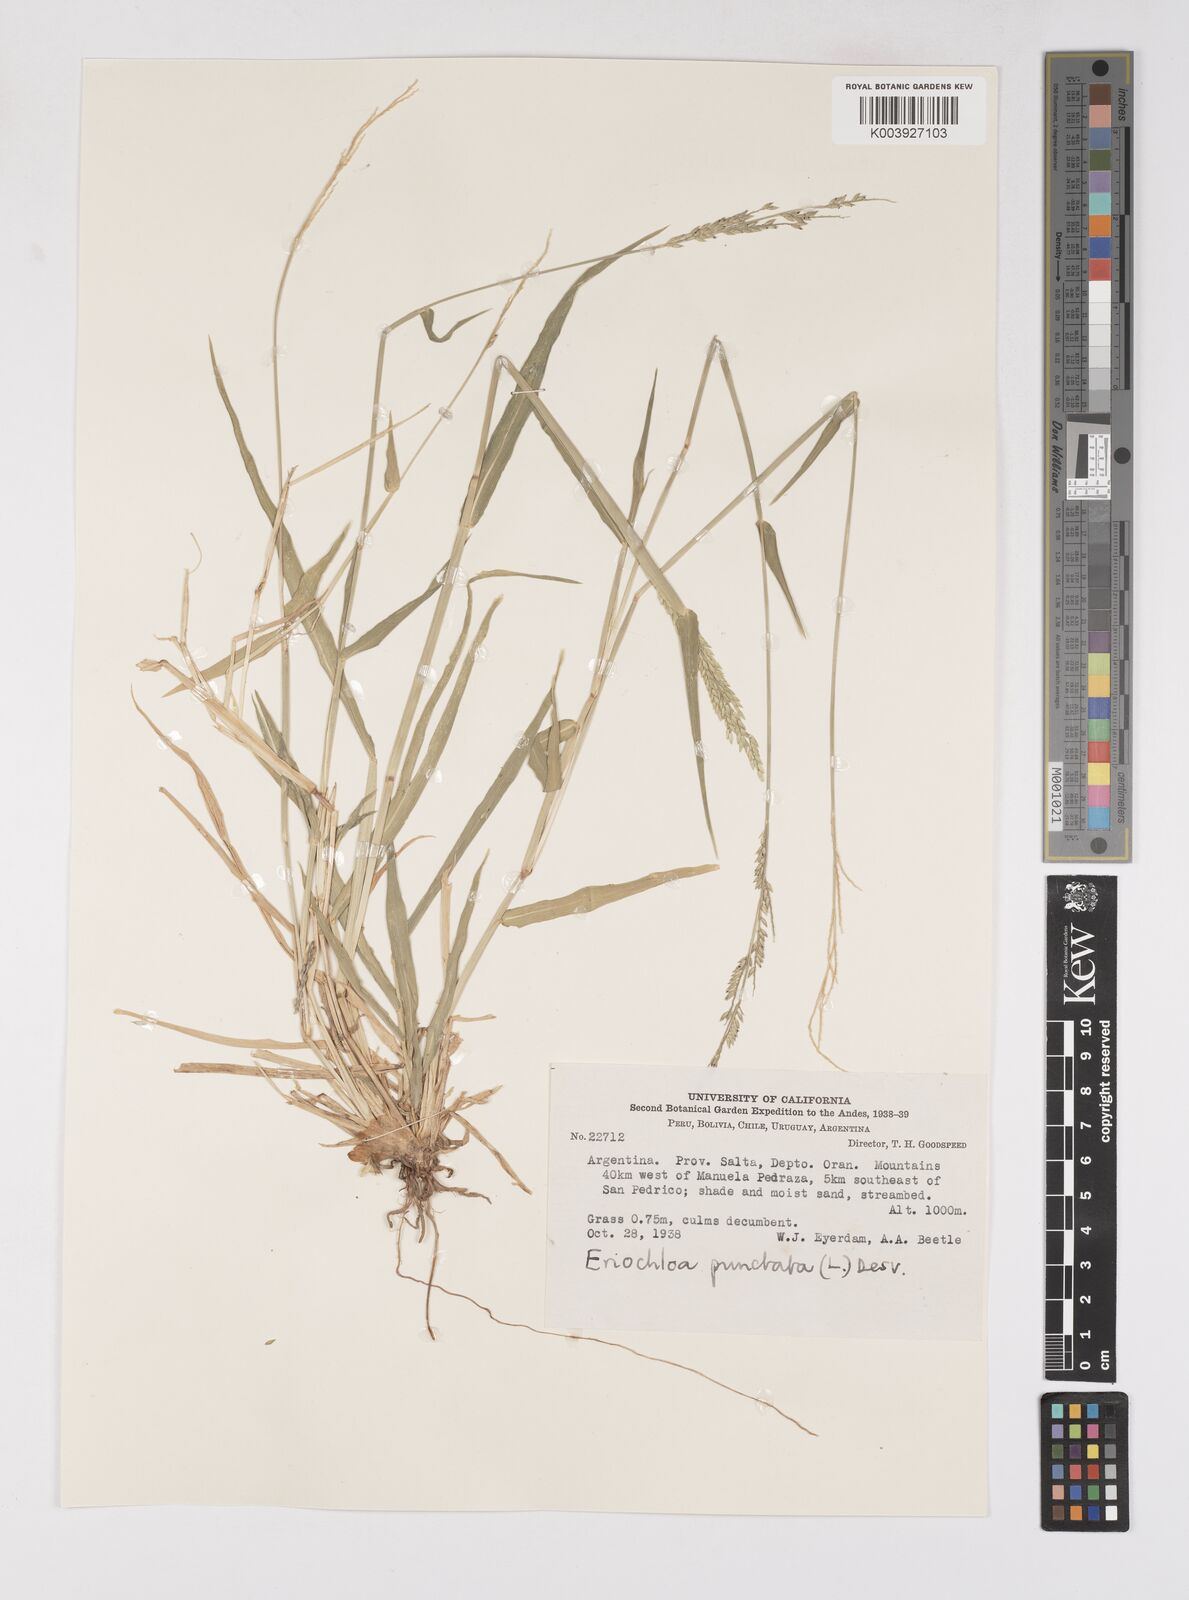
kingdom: Plantae
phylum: Tracheophyta
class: Liliopsida
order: Poales
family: Poaceae
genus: Eriochloa
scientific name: Eriochloa punctata
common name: Louisiana cupgrass
